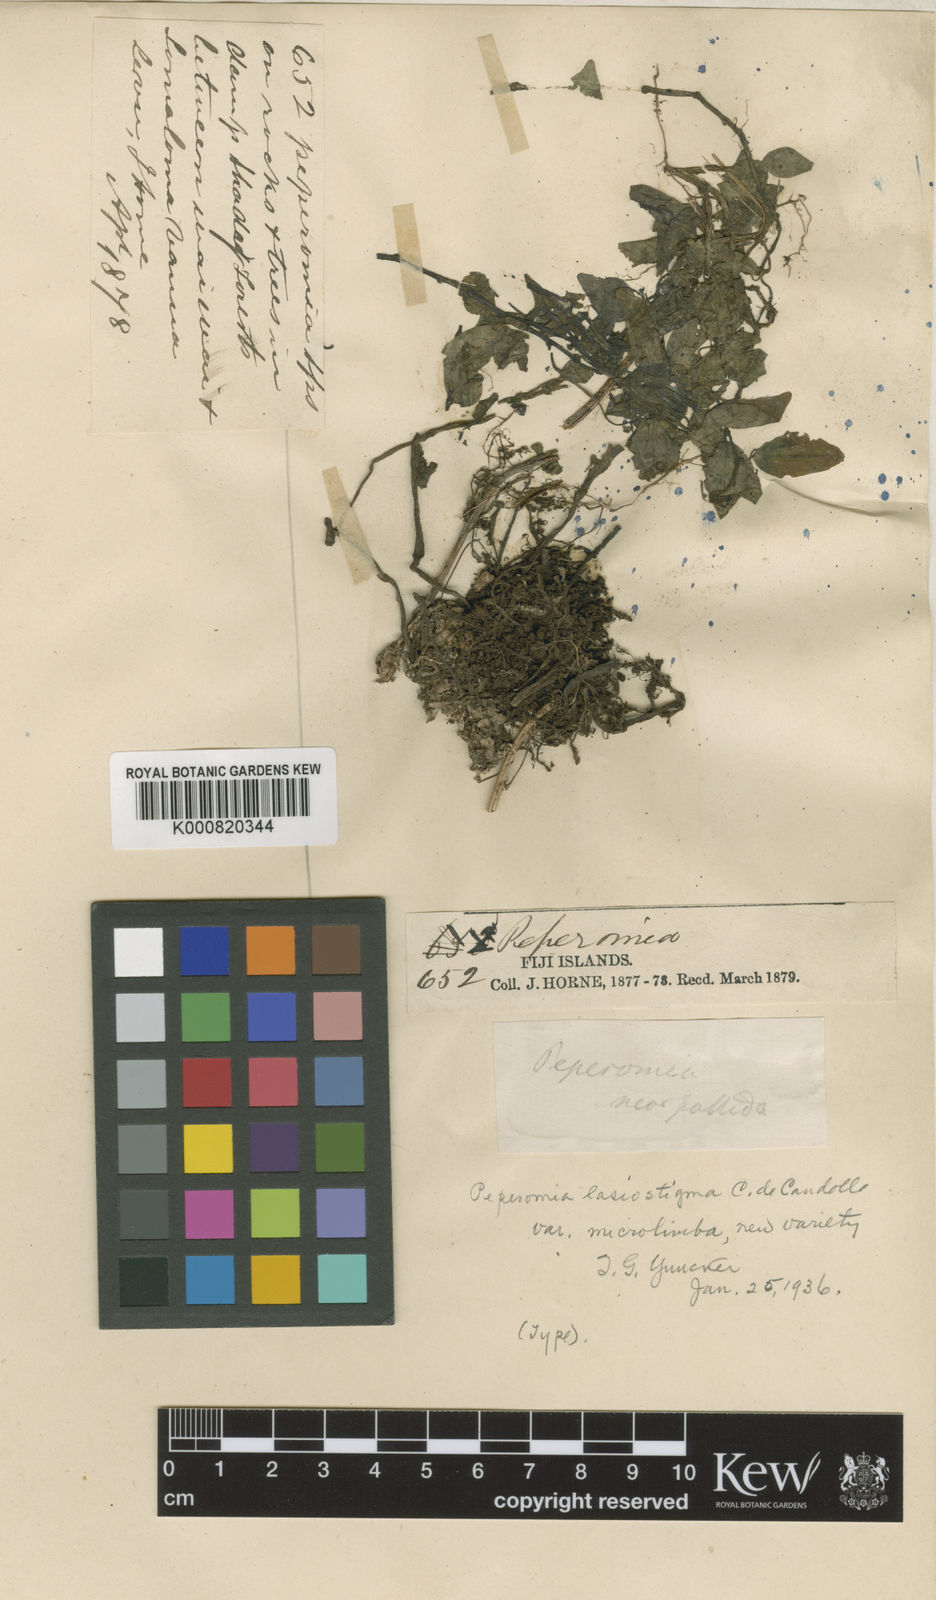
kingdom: Plantae
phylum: Tracheophyta
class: Magnoliopsida
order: Piperales
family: Piperaceae
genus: Peperomia
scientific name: Peperomia lasiostigma
